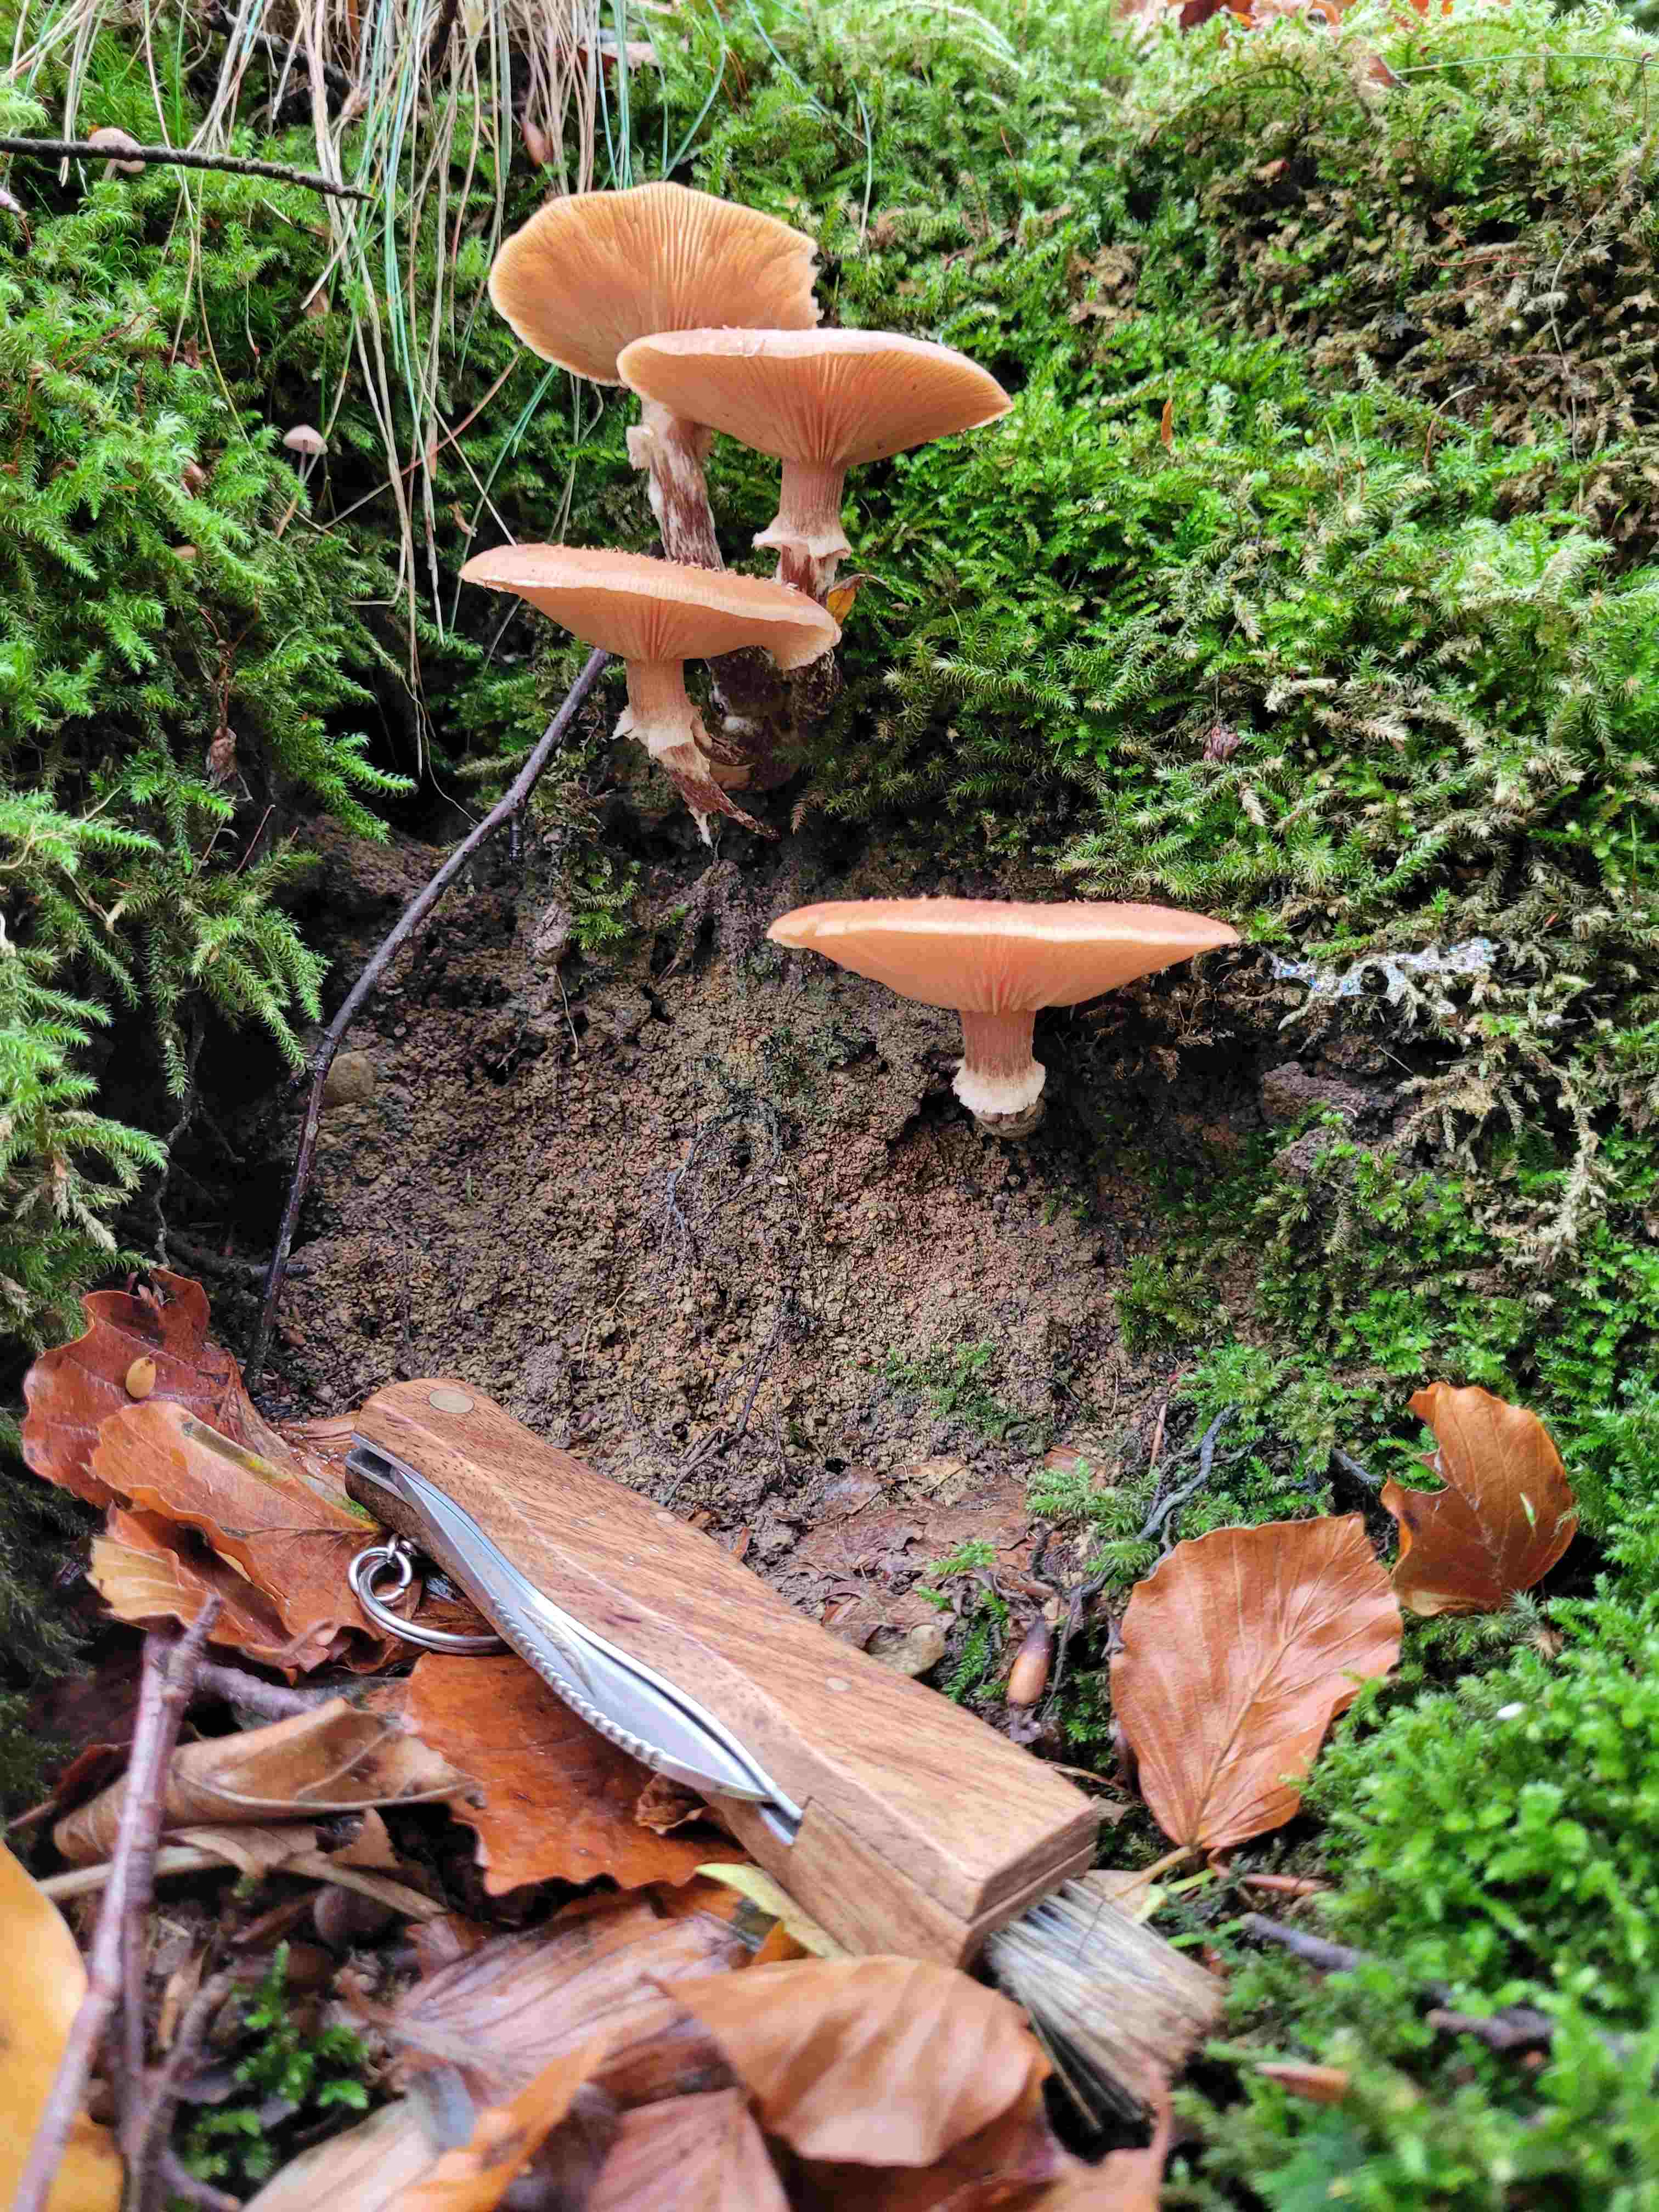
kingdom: Fungi
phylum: Basidiomycota
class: Agaricomycetes
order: Agaricales
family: Physalacriaceae
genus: Armillaria
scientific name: Armillaria
